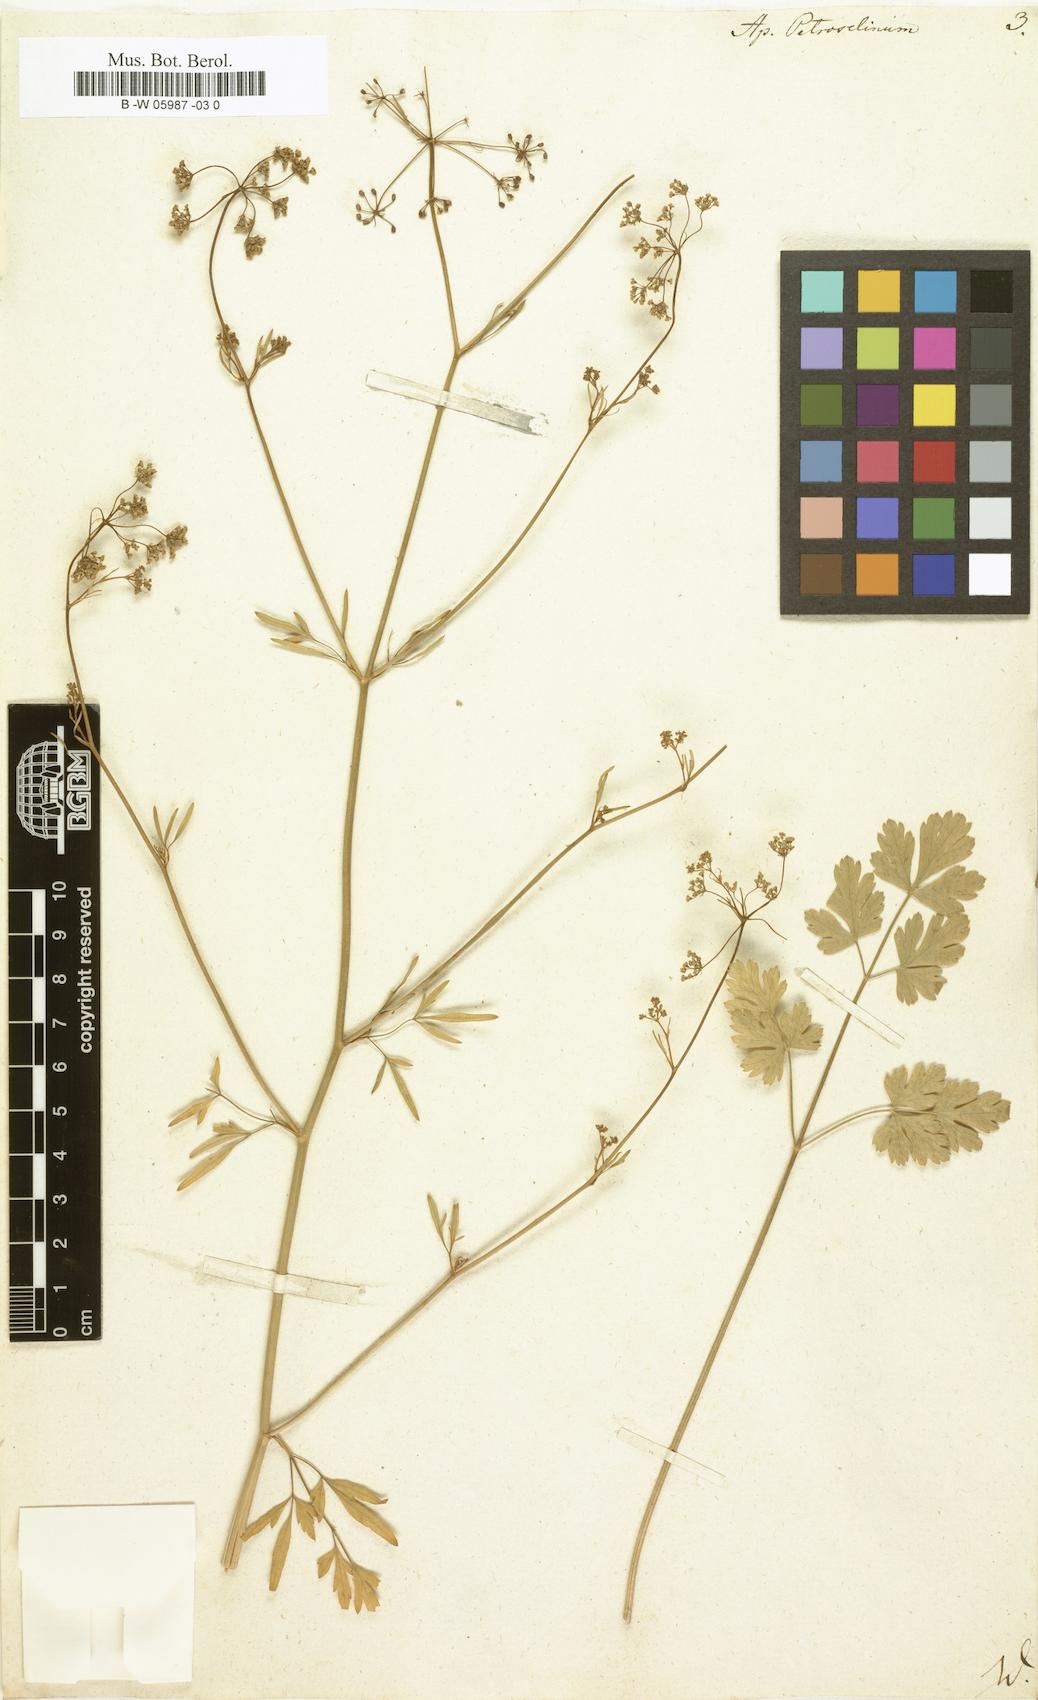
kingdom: Plantae
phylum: Tracheophyta
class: Magnoliopsida
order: Apiales
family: Apiaceae
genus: Petroselinum
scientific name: Petroselinum crispum
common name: Parsley
